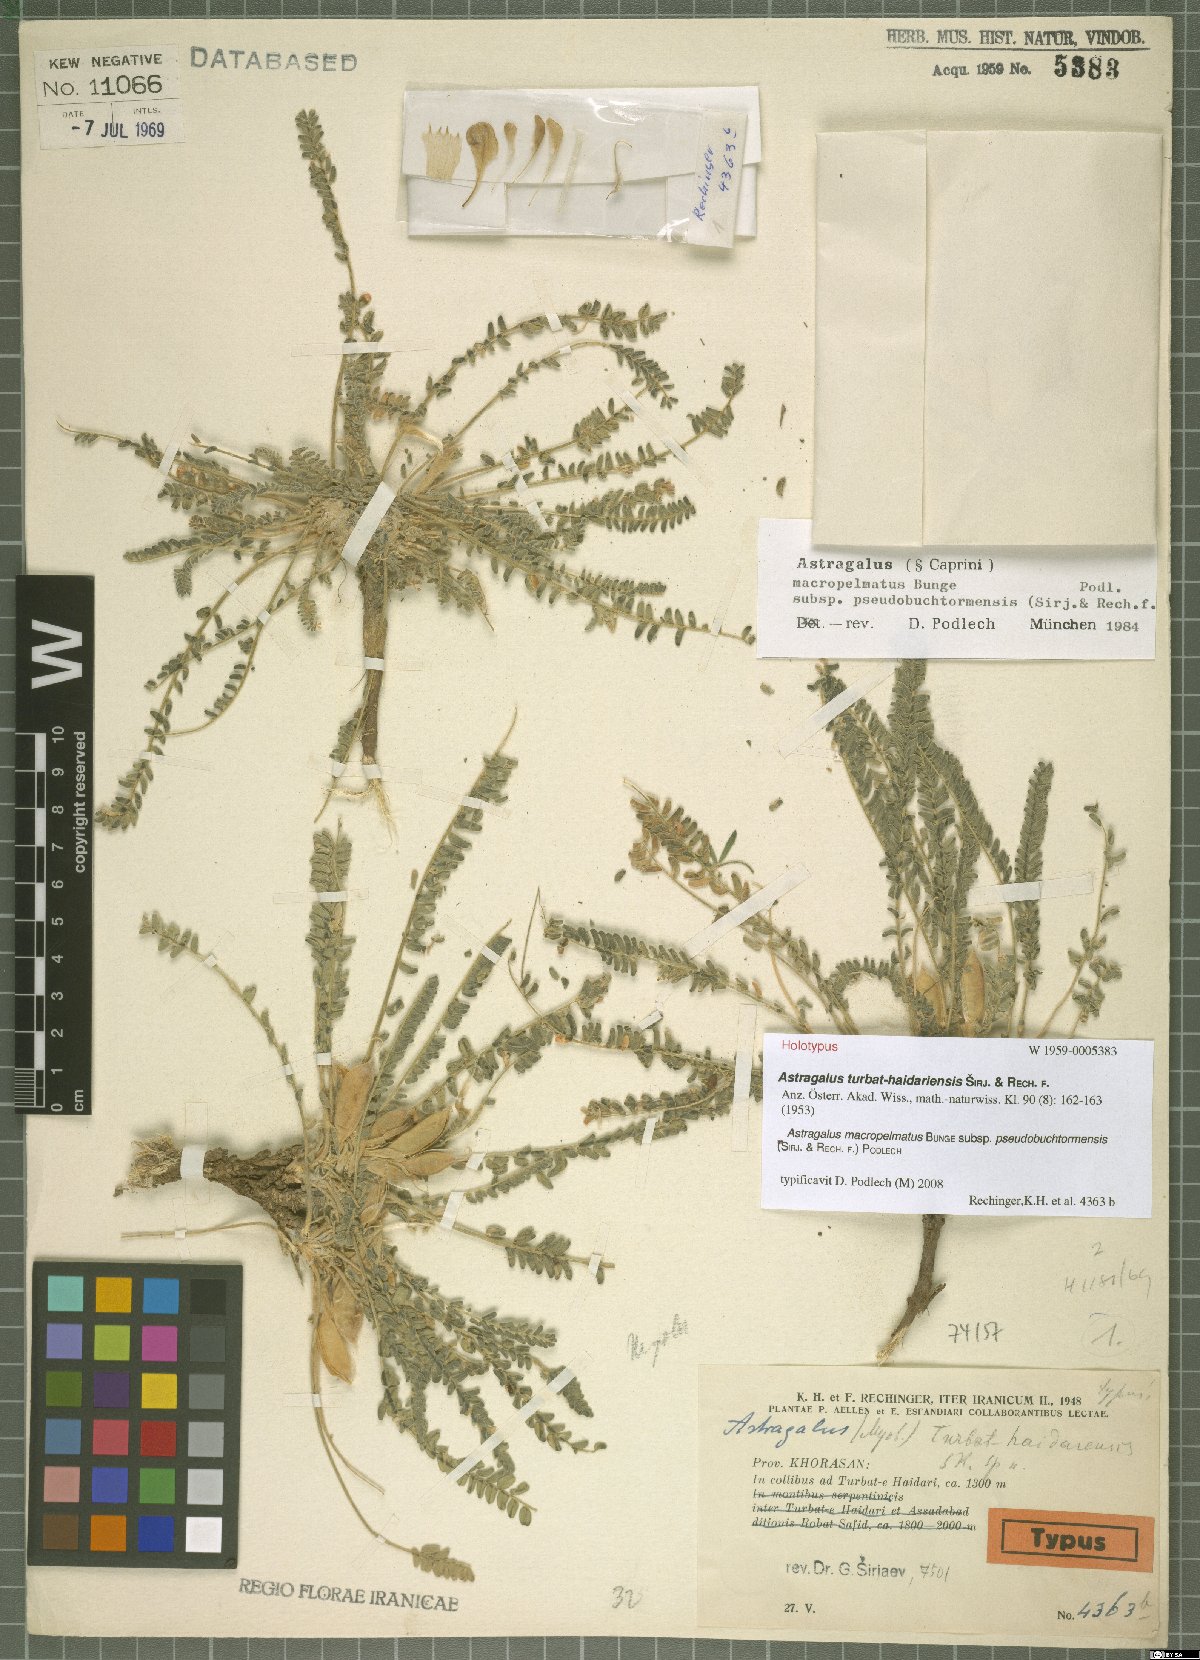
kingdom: Plantae
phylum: Tracheophyta
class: Magnoliopsida
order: Fabales
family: Fabaceae
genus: Astragalus
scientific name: Astragalus macropelmatus
